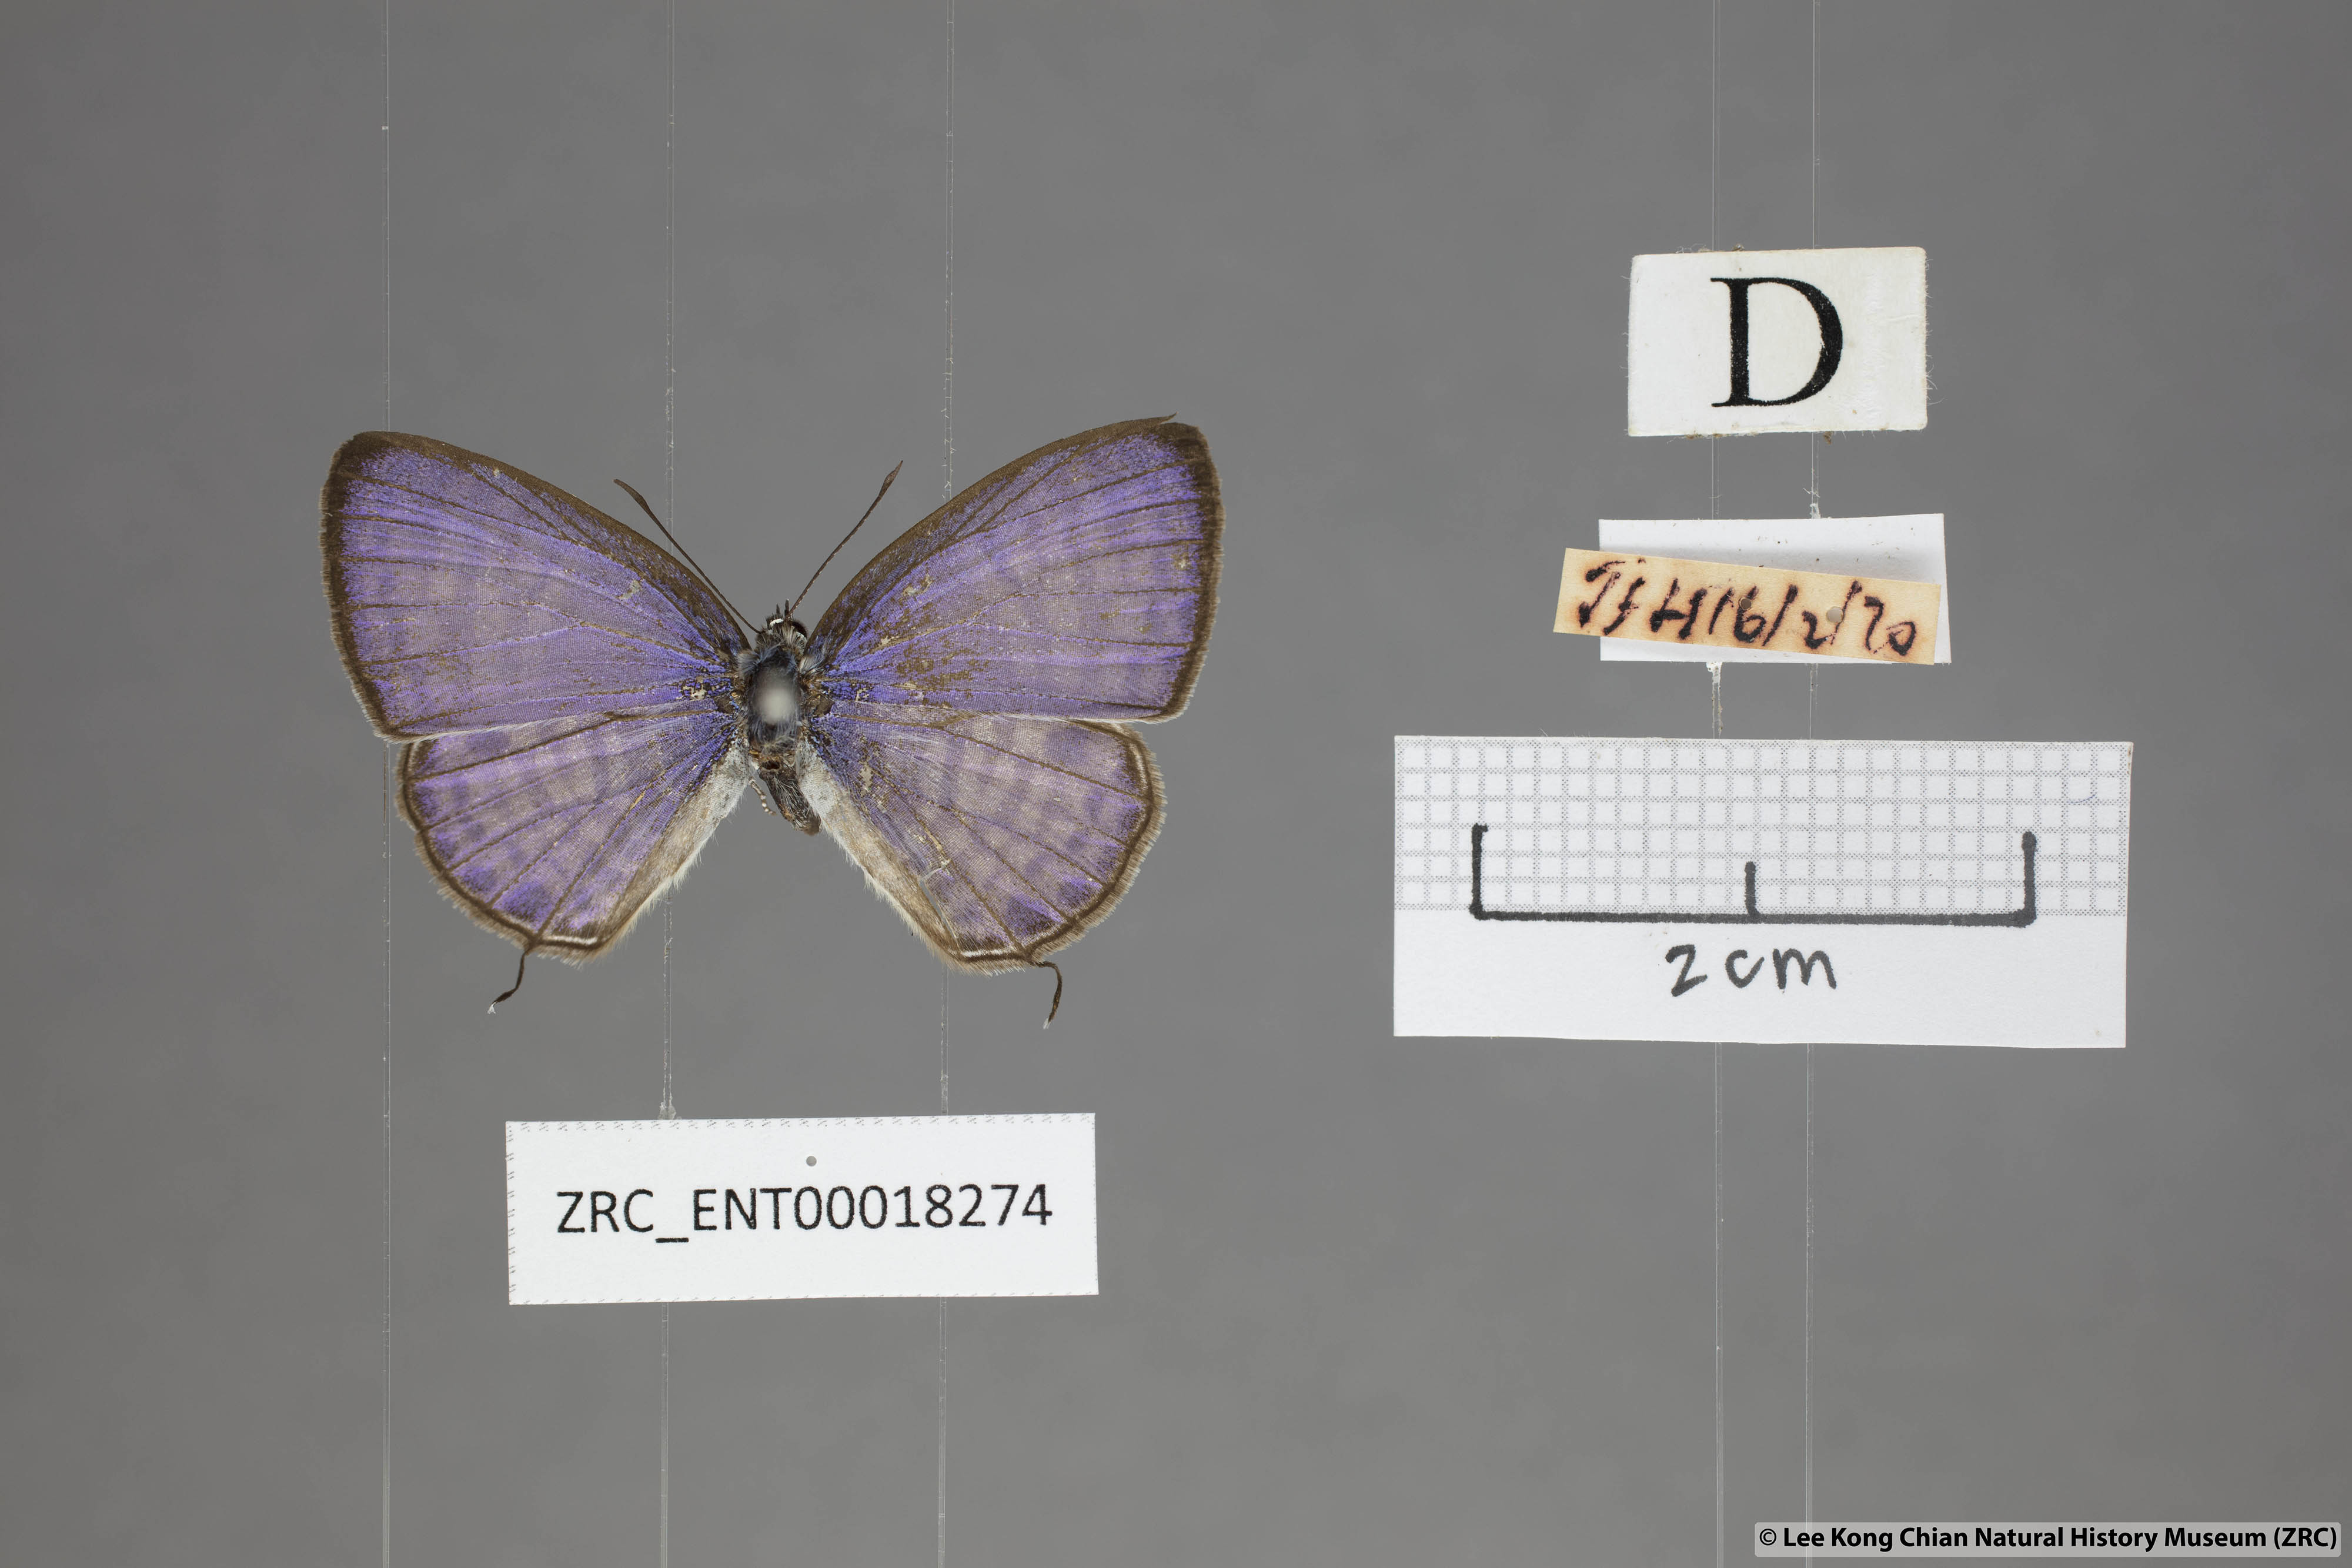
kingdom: Animalia
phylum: Arthropoda
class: Insecta
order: Lepidoptera
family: Lycaenidae
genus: Nacaduba
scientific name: Nacaduba angusta
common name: White four-line blue
